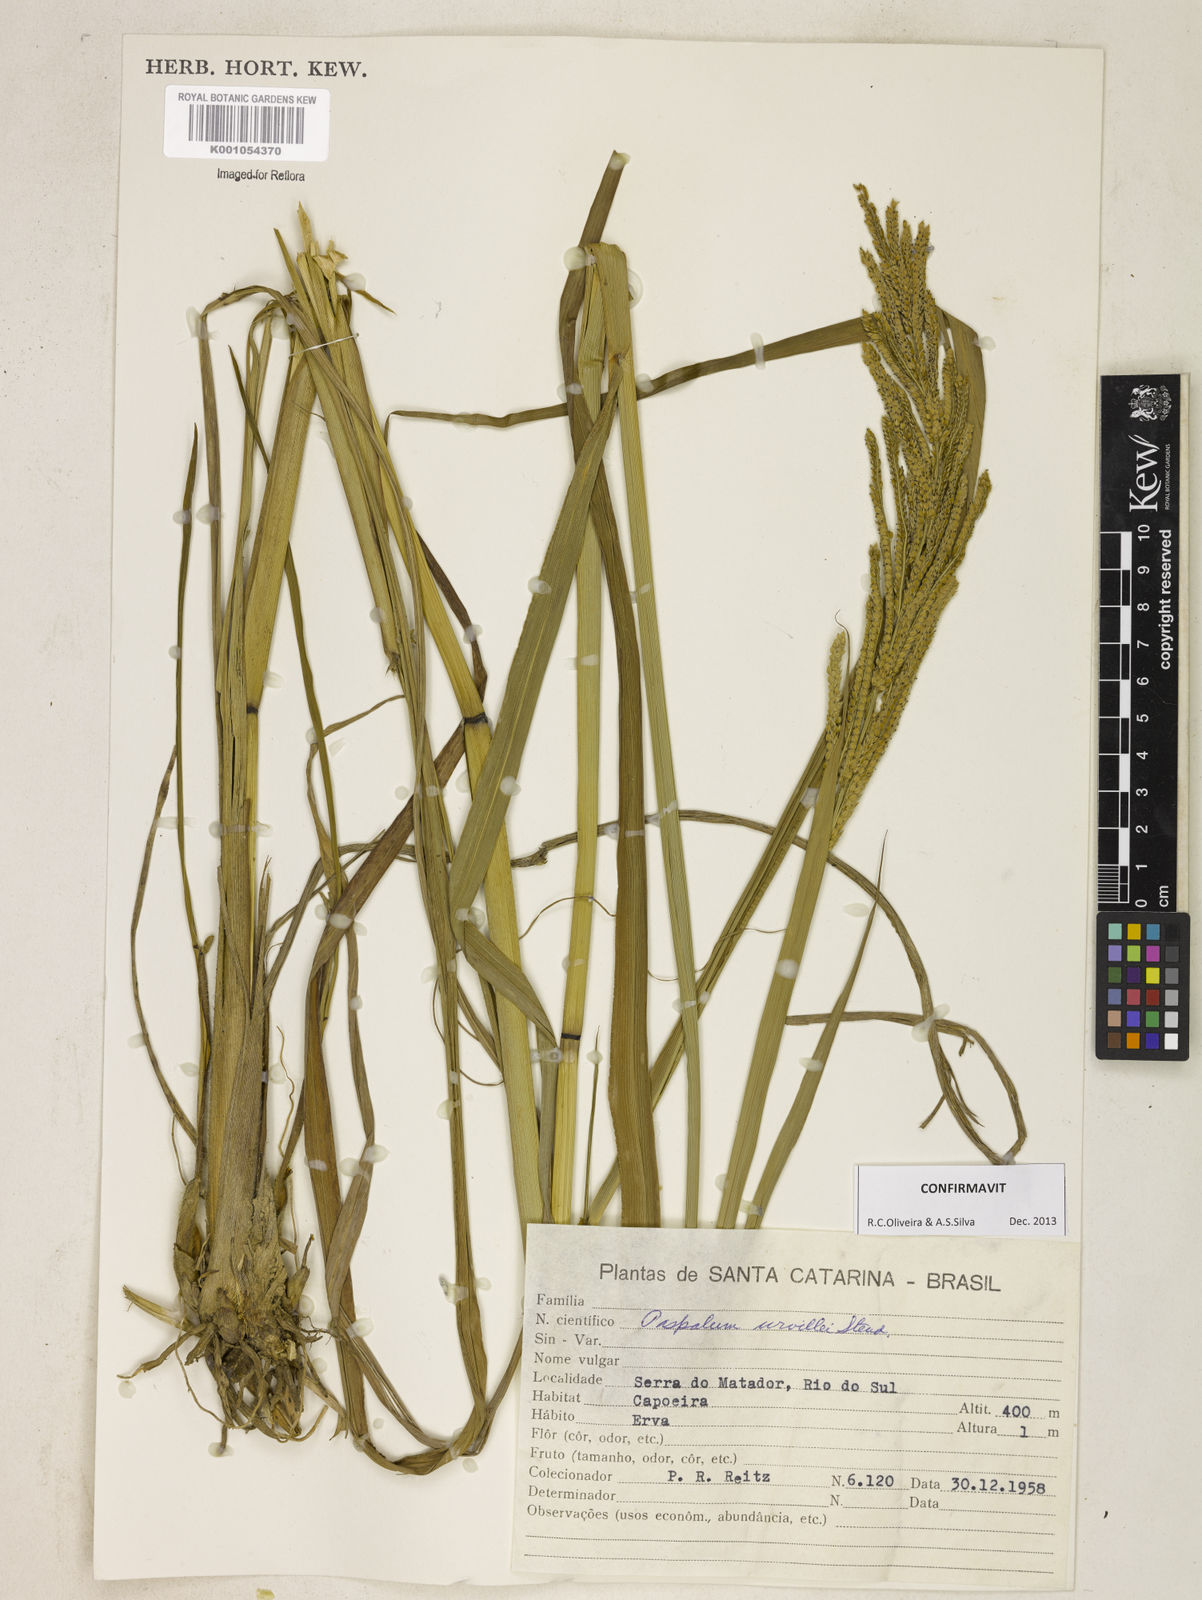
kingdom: Plantae
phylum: Tracheophyta
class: Liliopsida
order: Poales
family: Poaceae
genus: Paspalum
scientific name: Paspalum urvillei
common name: Vasey's grass
